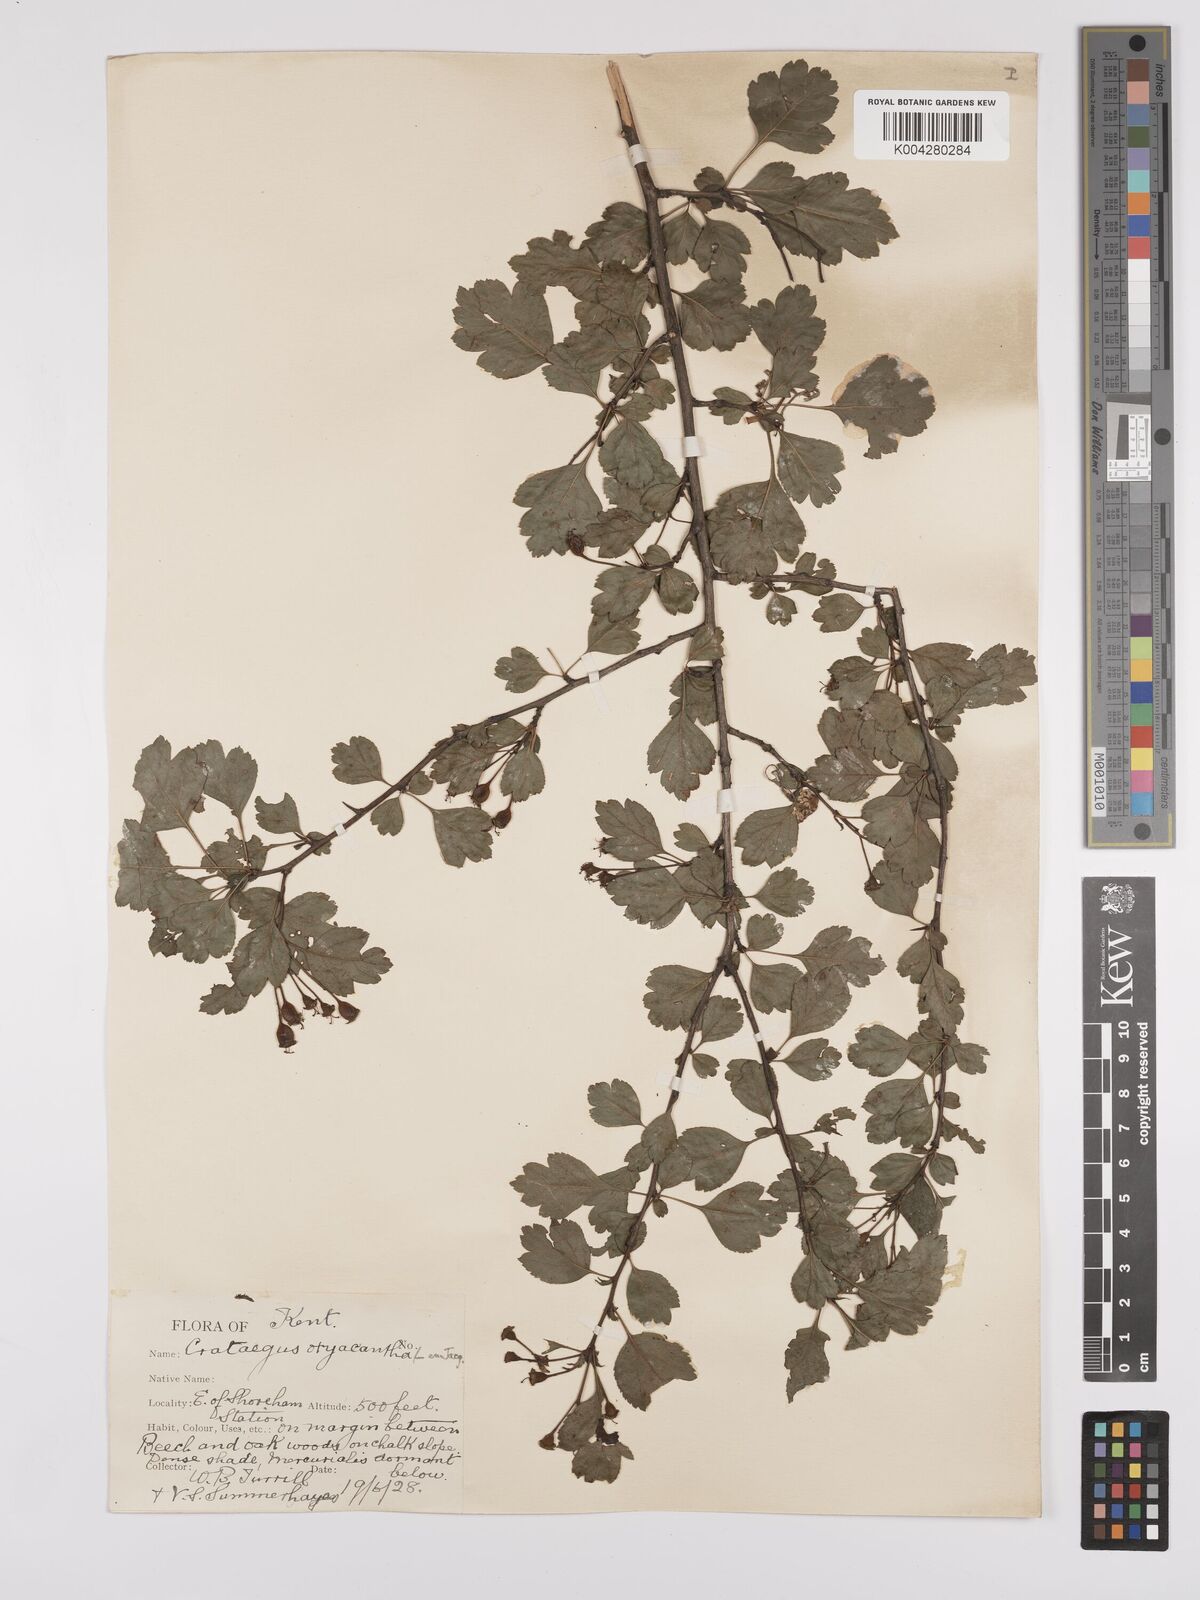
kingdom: Plantae
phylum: Tracheophyta
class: Magnoliopsida
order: Rosales
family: Rosaceae
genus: Crataegus
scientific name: Crataegus laevigata
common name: Midland hawthorn
